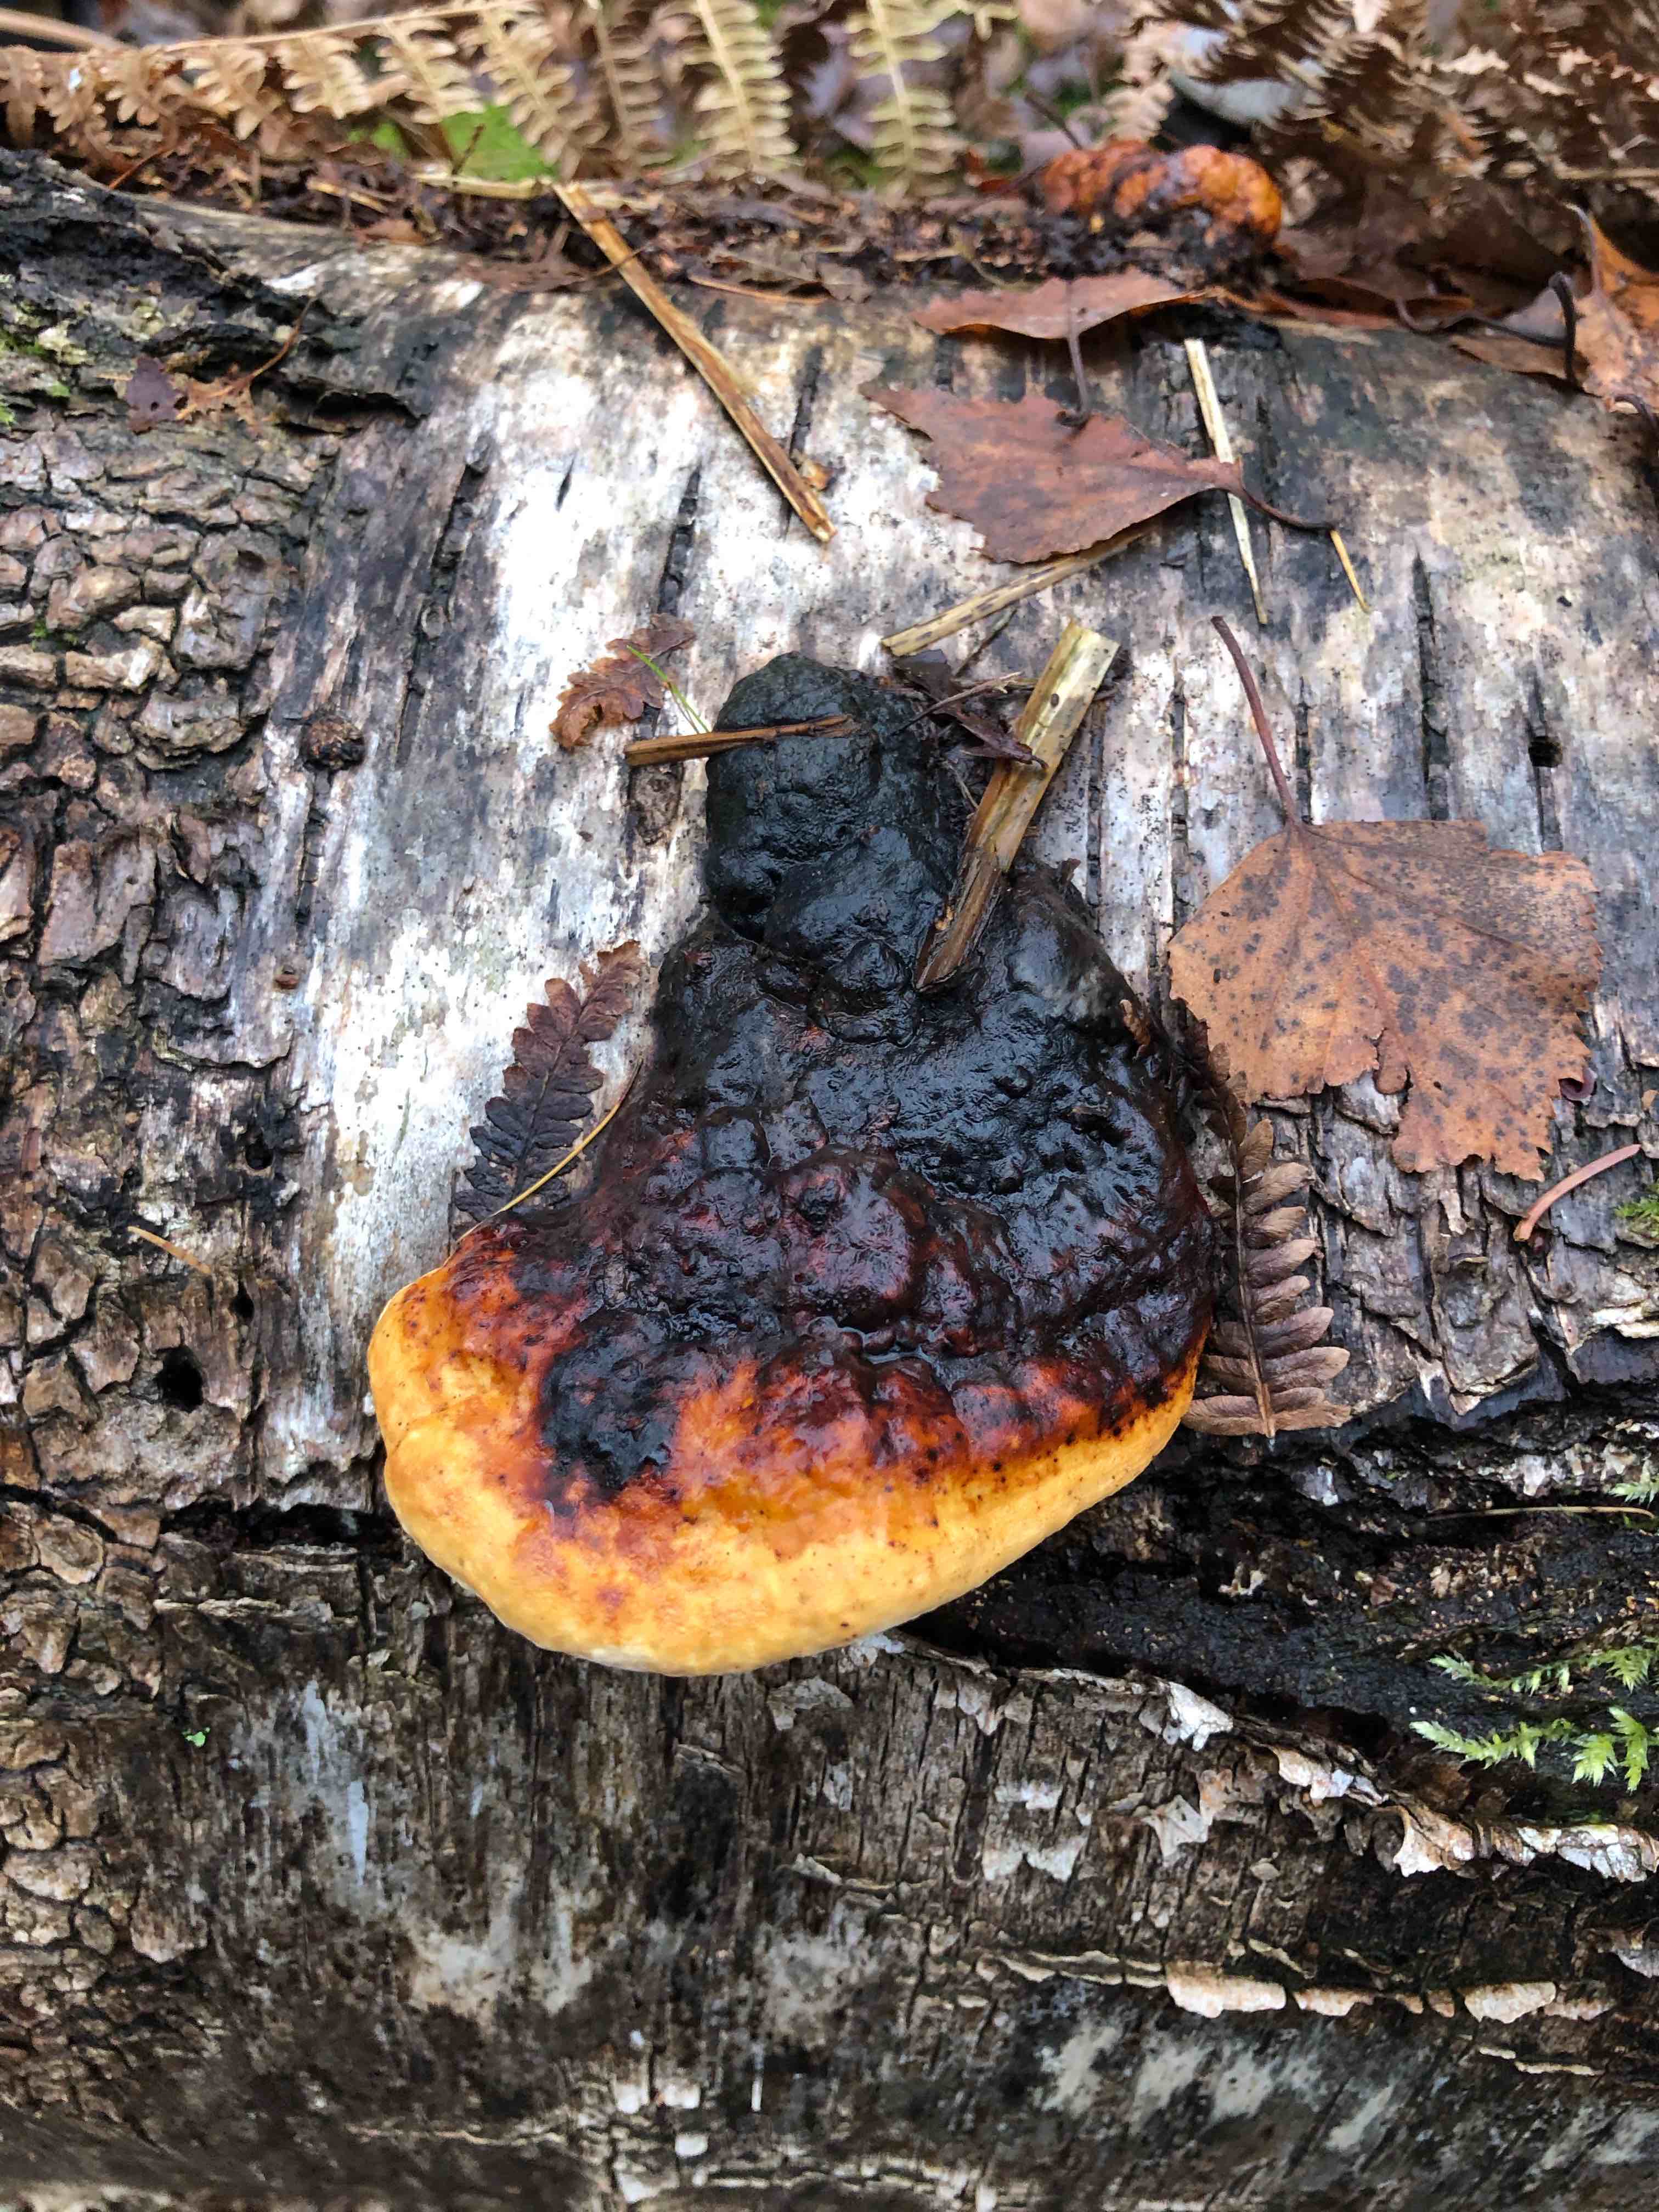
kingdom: Fungi
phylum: Basidiomycota
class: Agaricomycetes
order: Polyporales
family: Fomitopsidaceae
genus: Fomitopsis
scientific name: Fomitopsis pinicola
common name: randbæltet hovporesvamp
